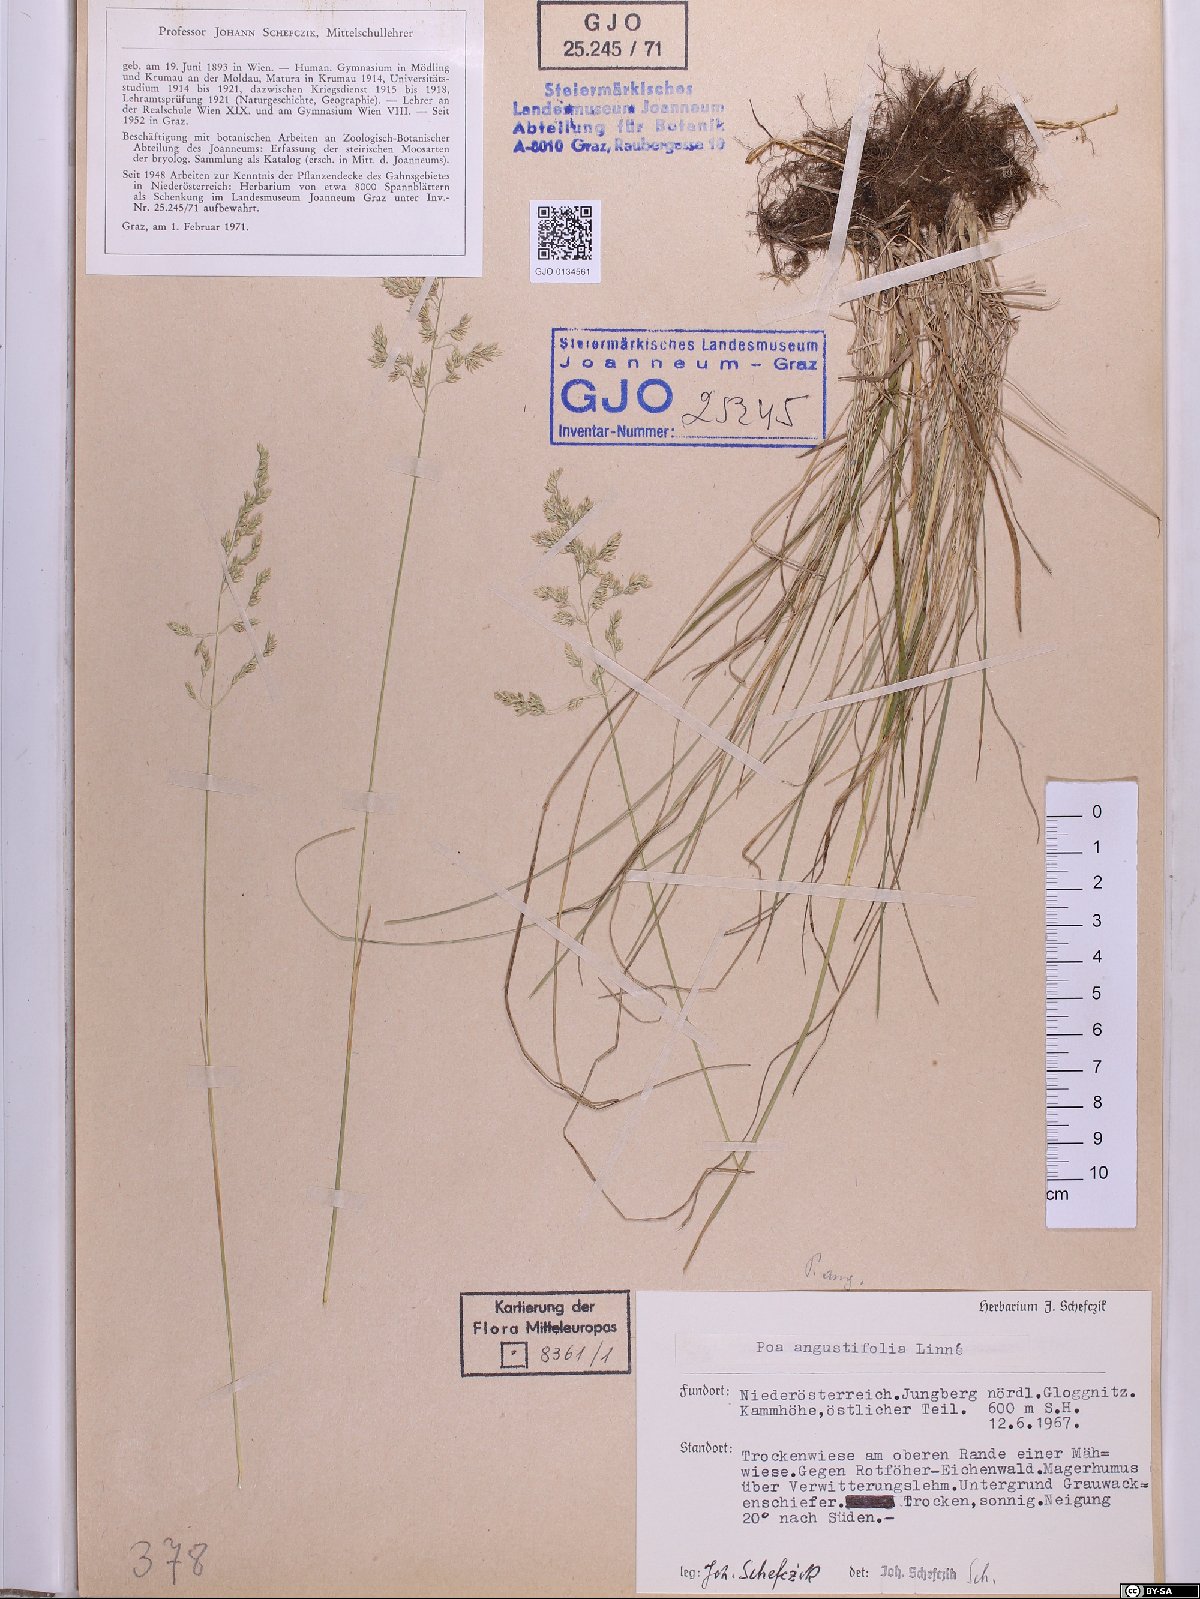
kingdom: Plantae
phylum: Tracheophyta
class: Liliopsida
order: Poales
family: Poaceae
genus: Poa
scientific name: Poa angustifolia
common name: Narrow-leaved meadow-grass
